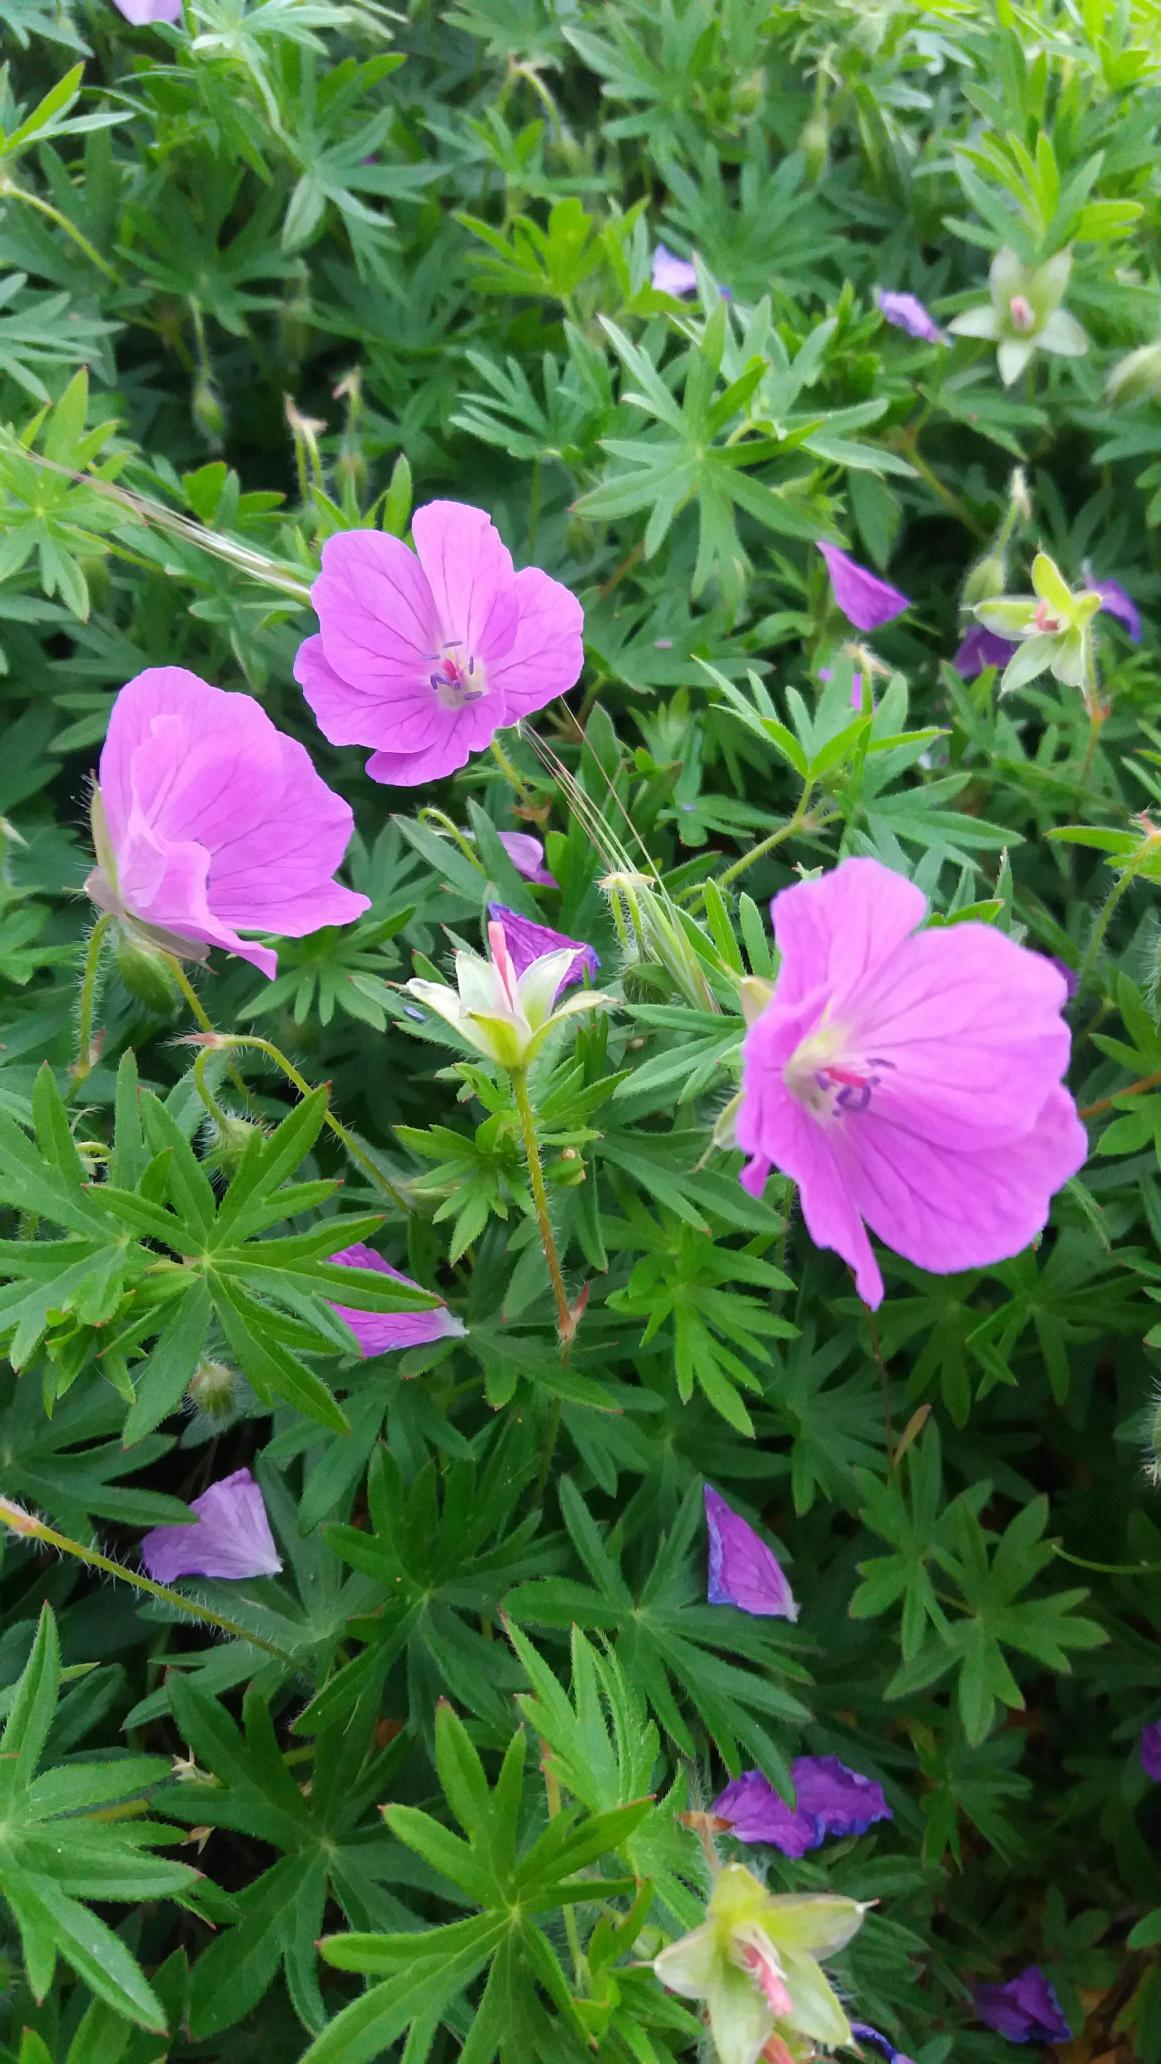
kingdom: Plantae
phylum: Tracheophyta
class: Magnoliopsida
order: Geraniales
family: Geraniaceae
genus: Geranium
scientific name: Geranium sanguineum
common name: Blodrød storkenæb
